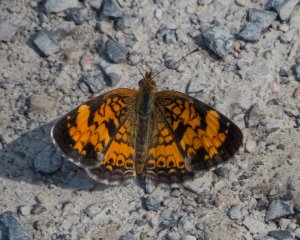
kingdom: Animalia
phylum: Arthropoda
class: Insecta
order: Lepidoptera
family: Nymphalidae
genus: Phyciodes
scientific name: Phyciodes tharos
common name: Northern Crescent
